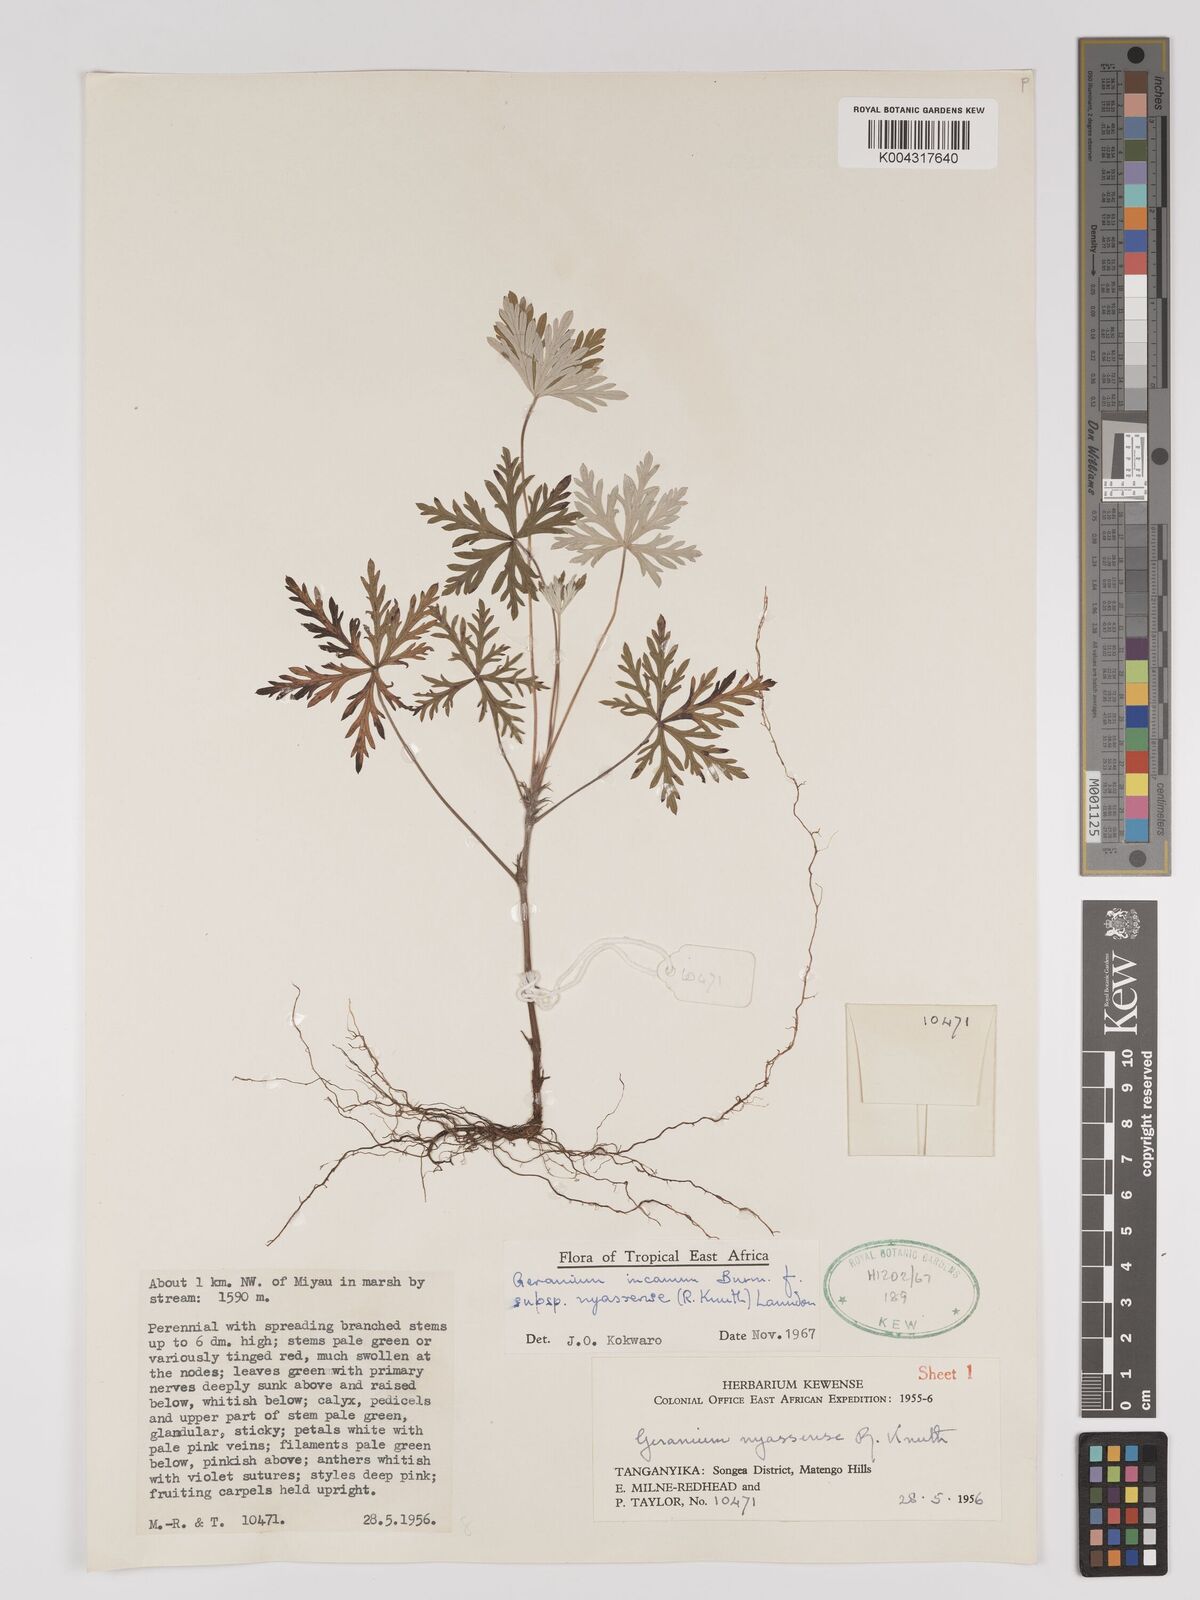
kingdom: Plantae
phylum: Tracheophyta
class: Magnoliopsida
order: Geraniales
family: Geraniaceae
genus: Geranium
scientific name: Geranium incanum
